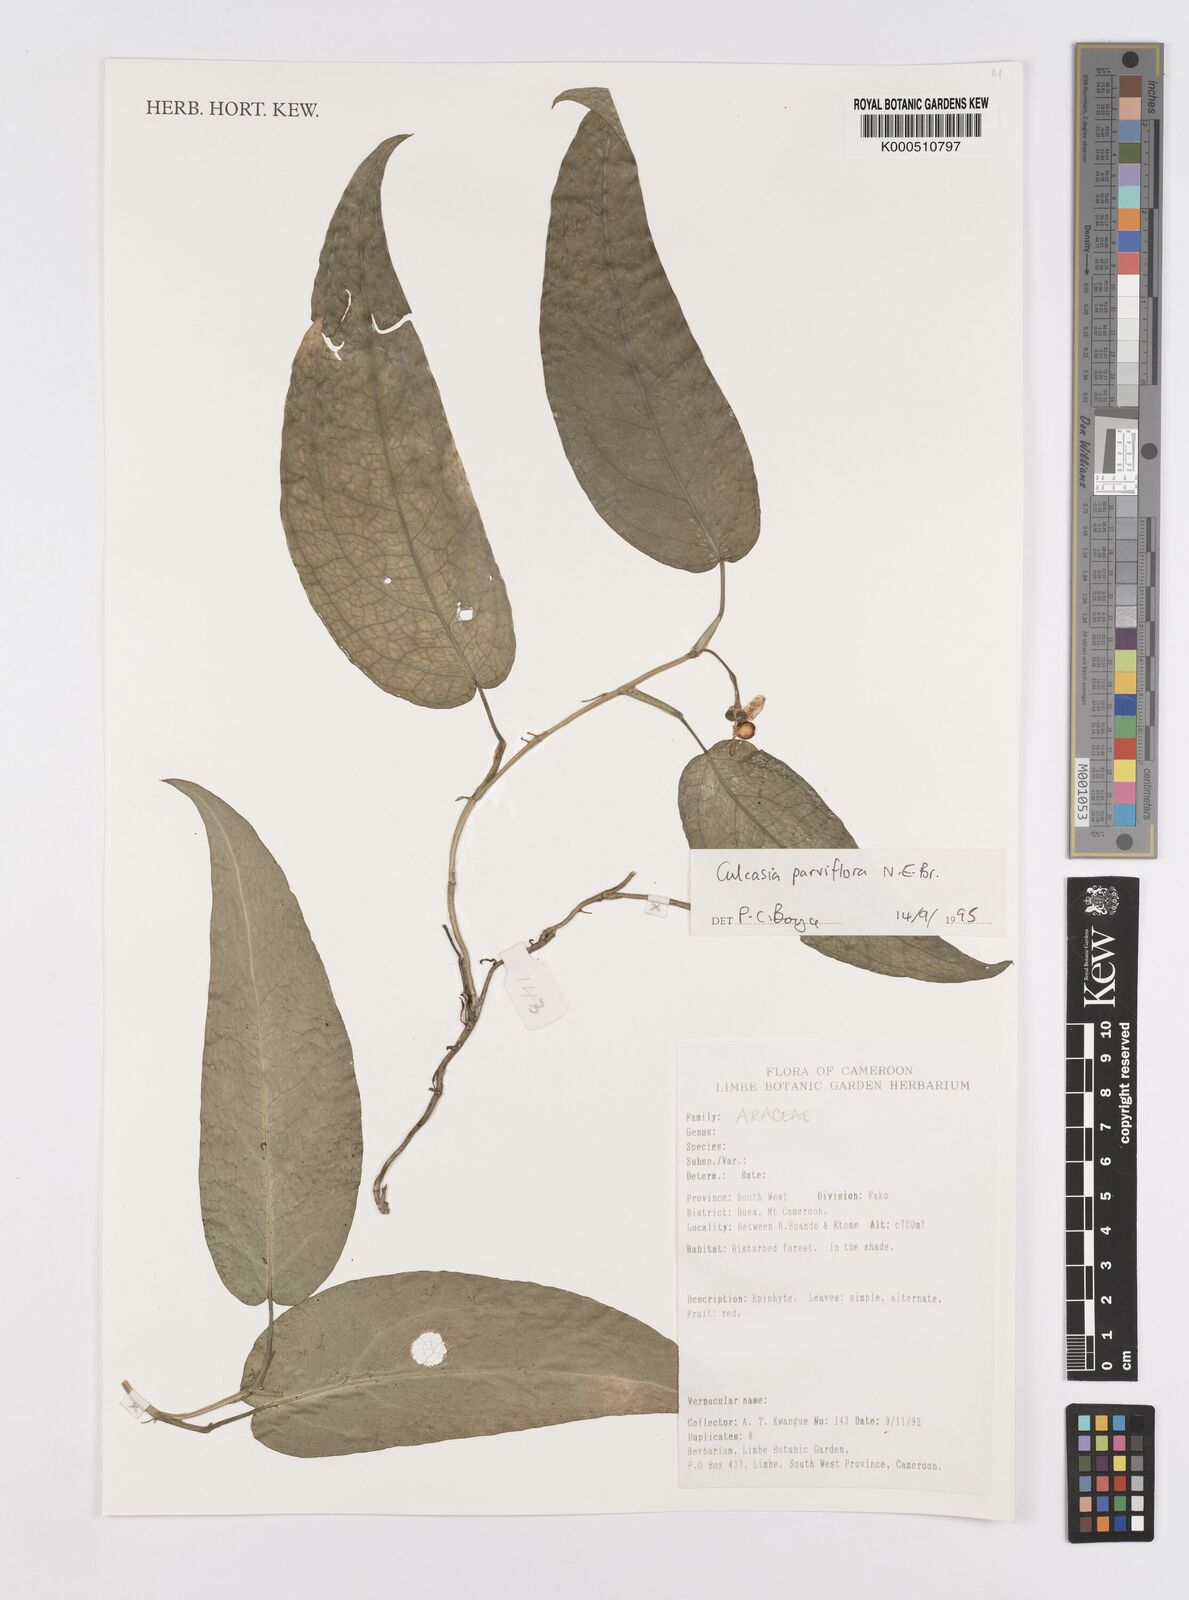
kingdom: Plantae
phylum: Tracheophyta
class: Liliopsida
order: Alismatales
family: Araceae
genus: Culcasia
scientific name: Culcasia parviflora
